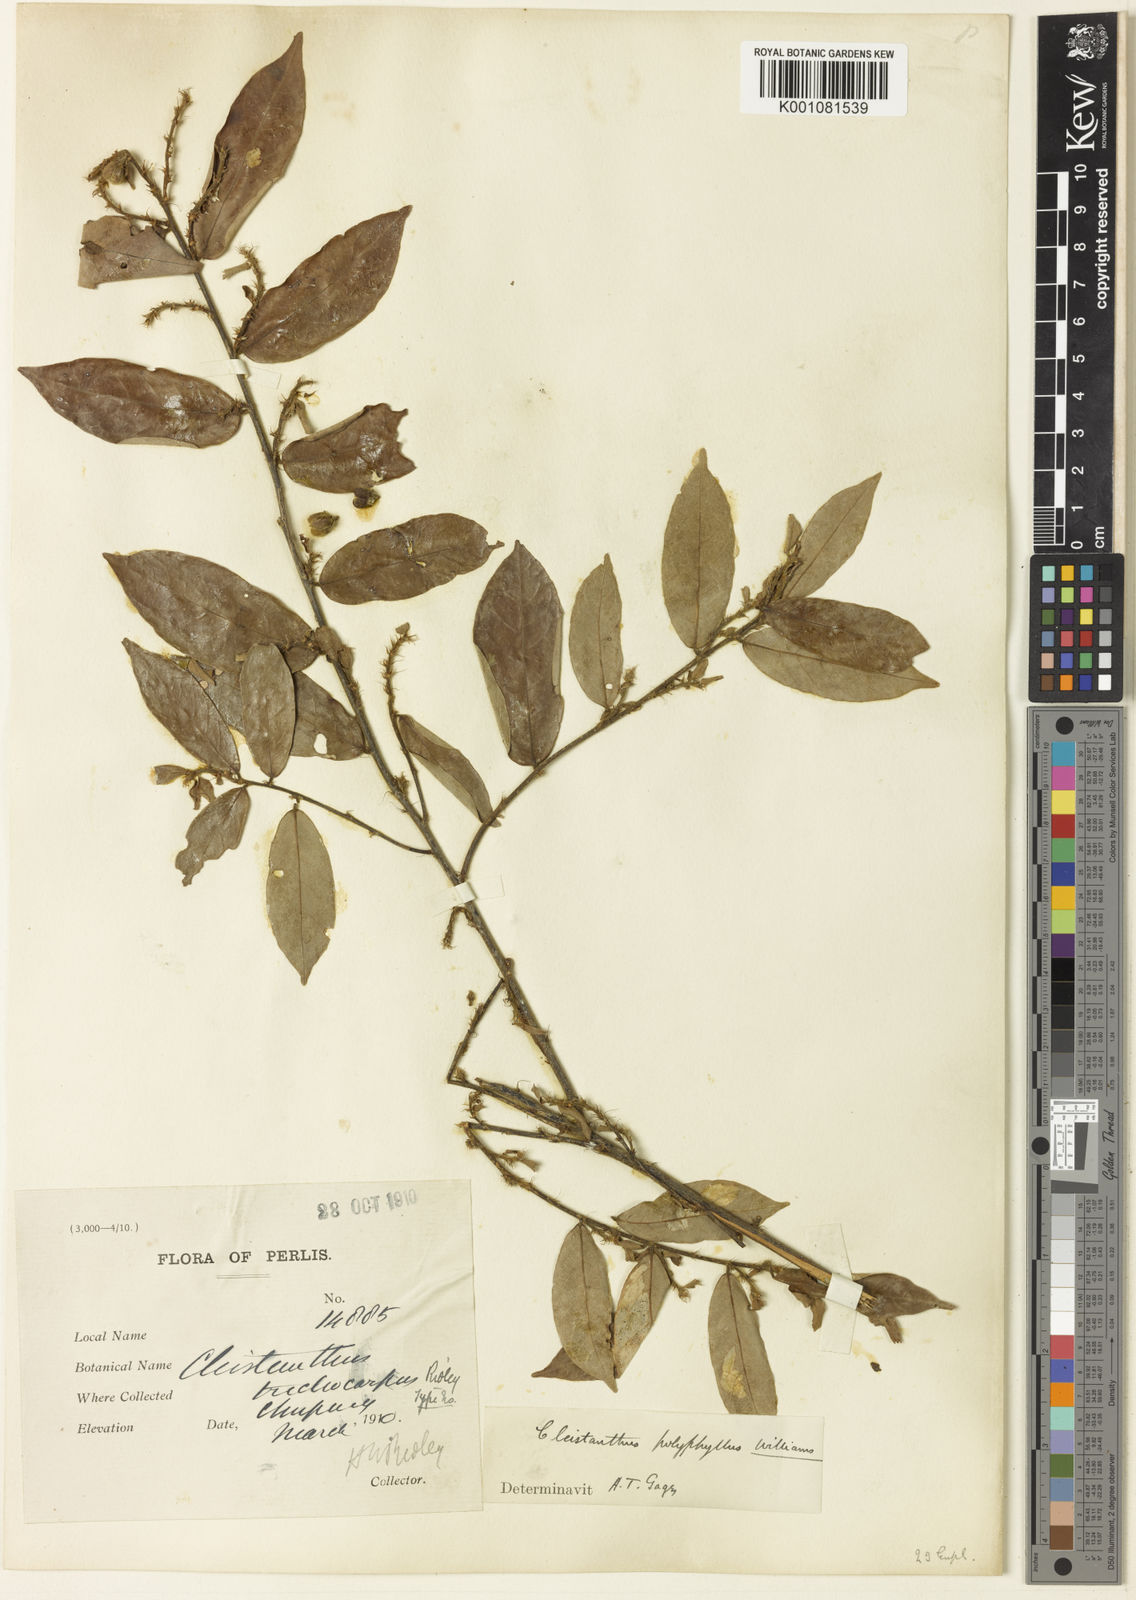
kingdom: Plantae
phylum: Tracheophyta
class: Magnoliopsida
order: Malpighiales
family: Phyllanthaceae
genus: Cleistanthus
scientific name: Cleistanthus polyphyllus
